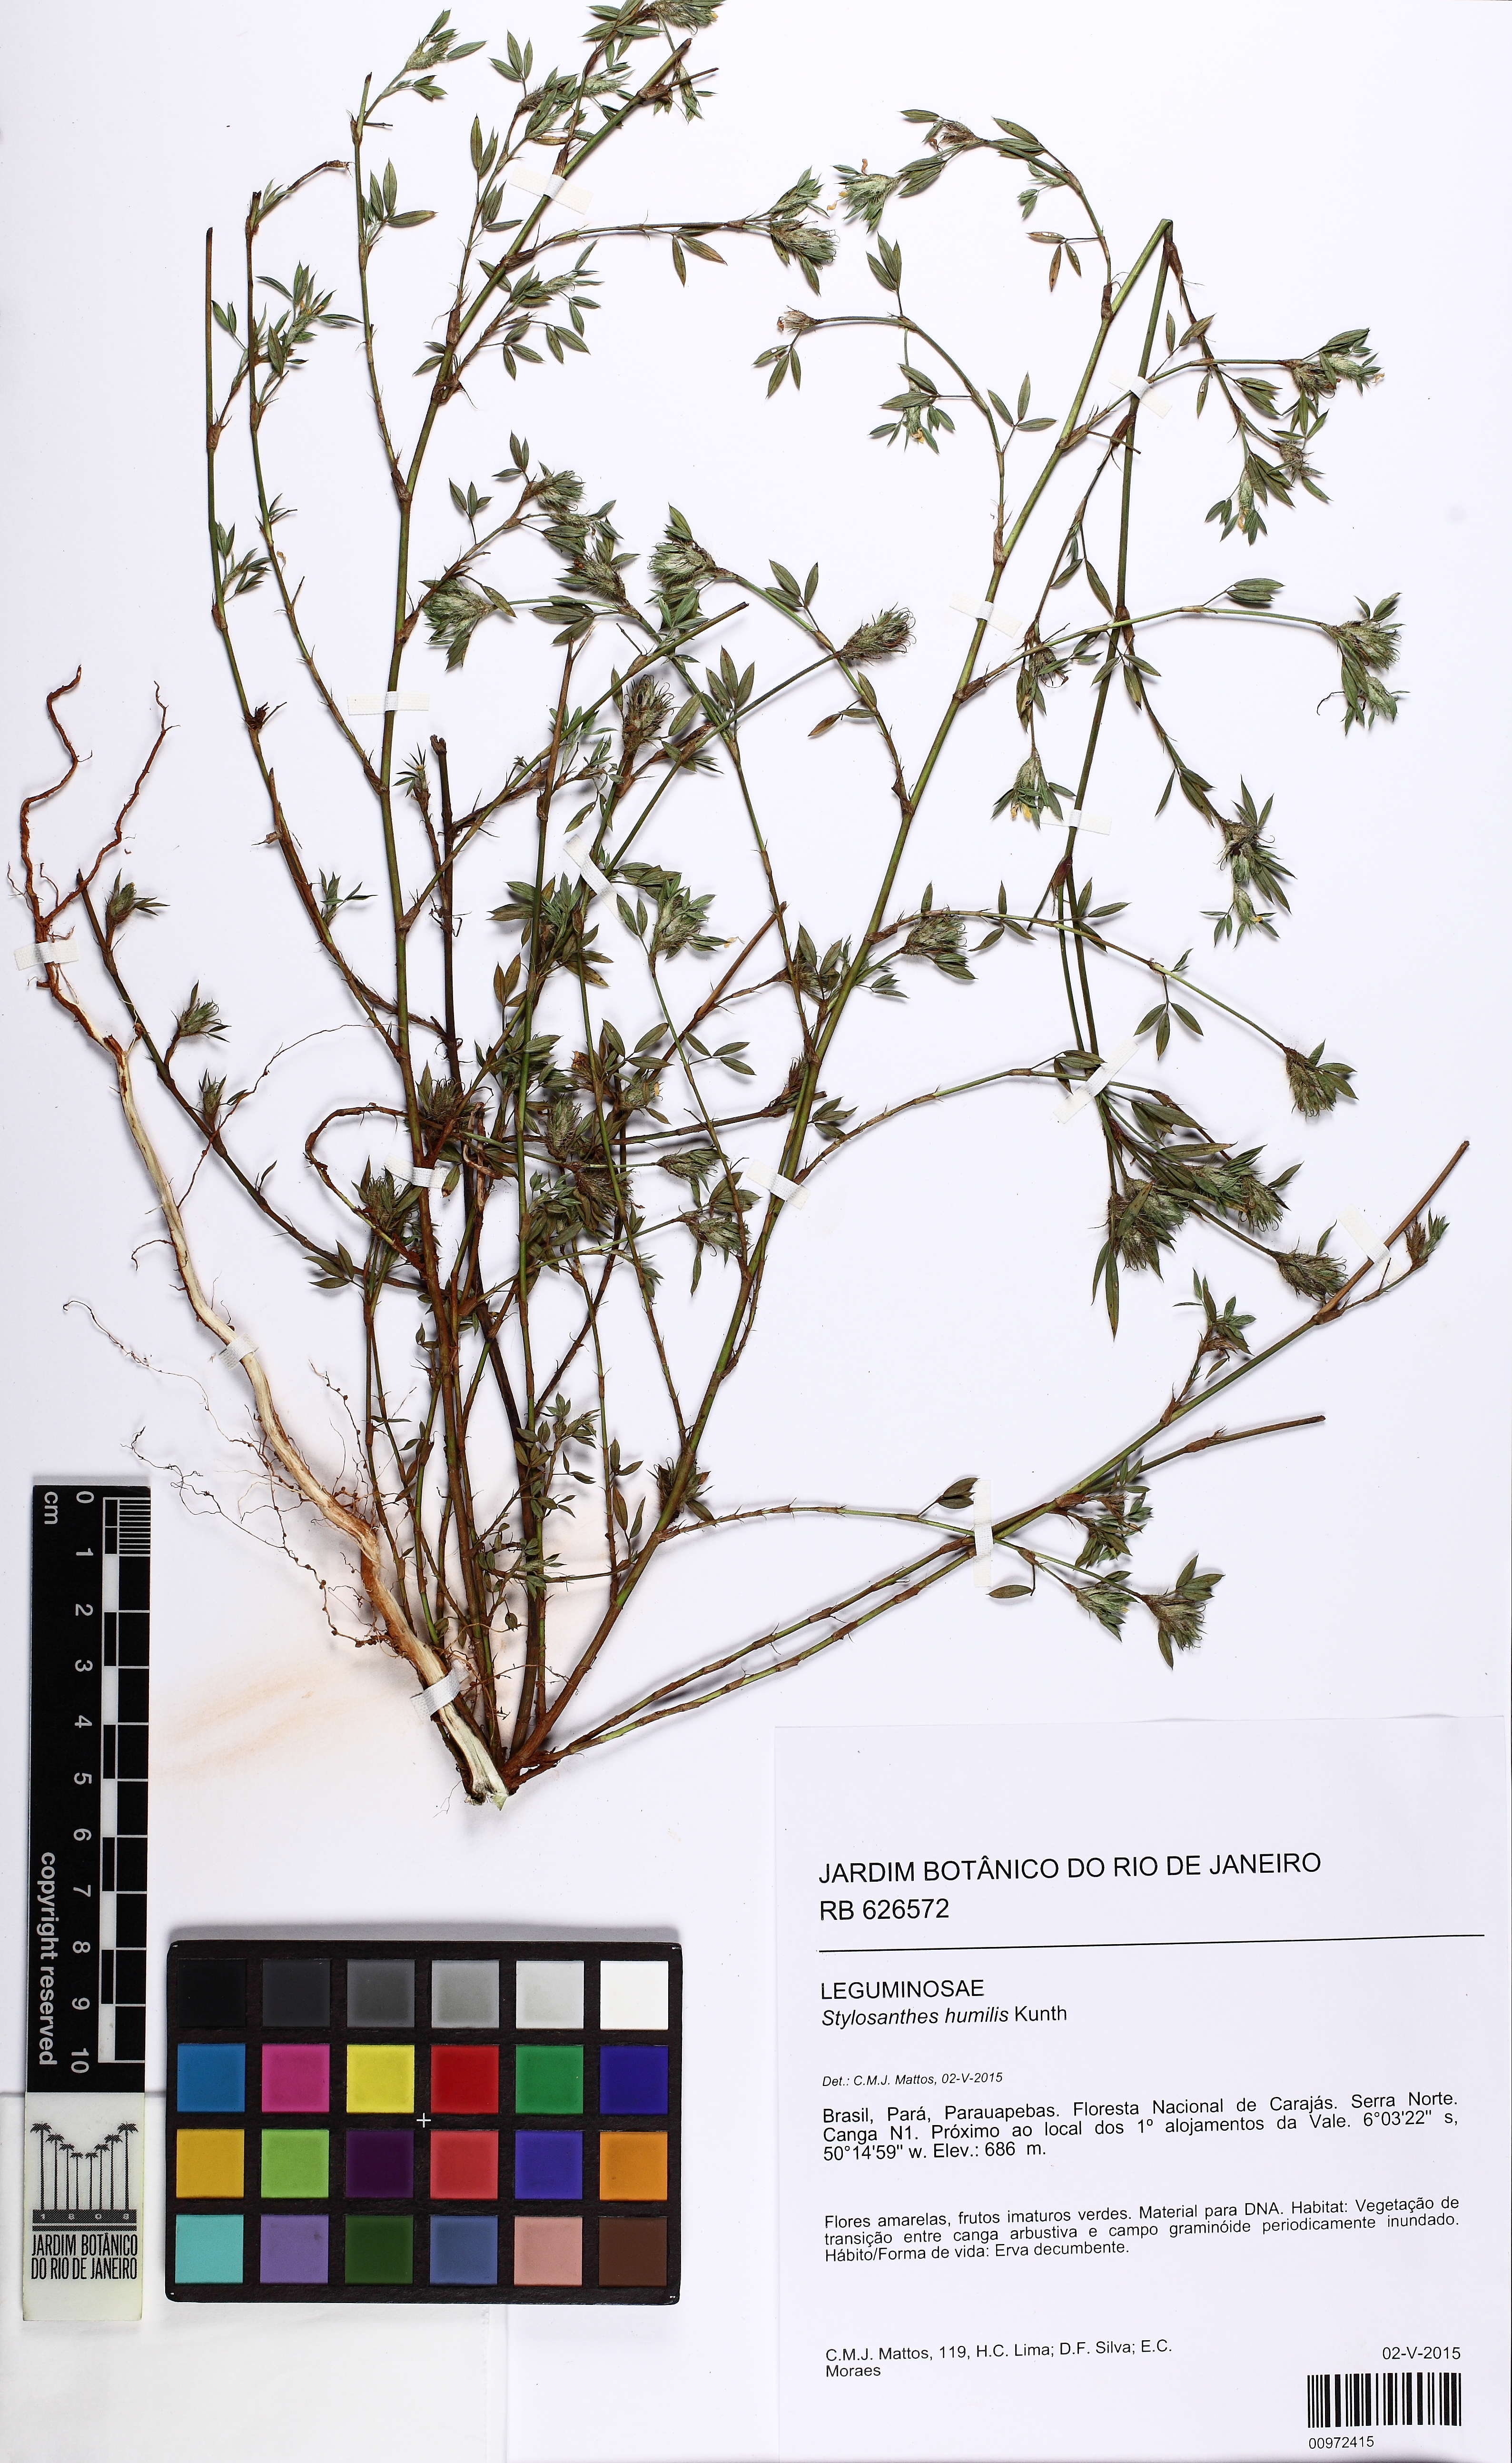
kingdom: Plantae
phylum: Tracheophyta
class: Magnoliopsida
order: Fabales
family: Fabaceae
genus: Stylosanthes
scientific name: Stylosanthes humilis
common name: Townsville stylo
